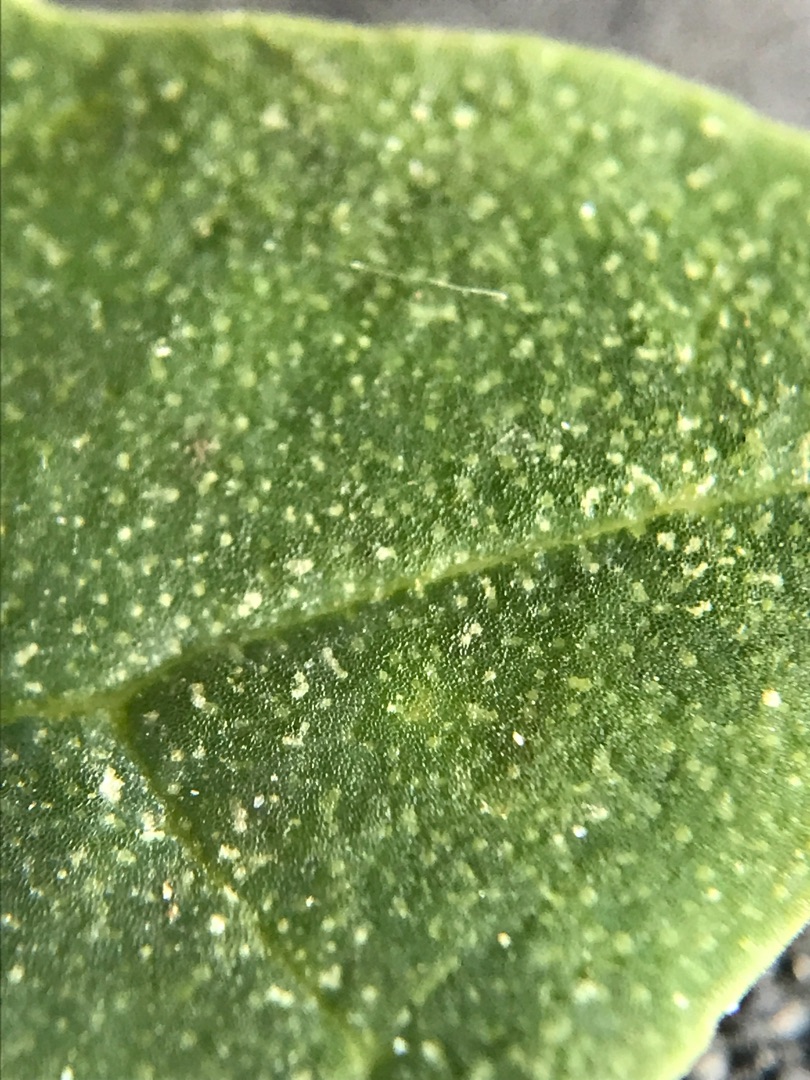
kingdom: Plantae
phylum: Tracheophyta
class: Magnoliopsida
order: Caryophyllales
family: Amaranthaceae
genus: Chenopodium
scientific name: Chenopodium album
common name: Hvidmelet gåsefod
